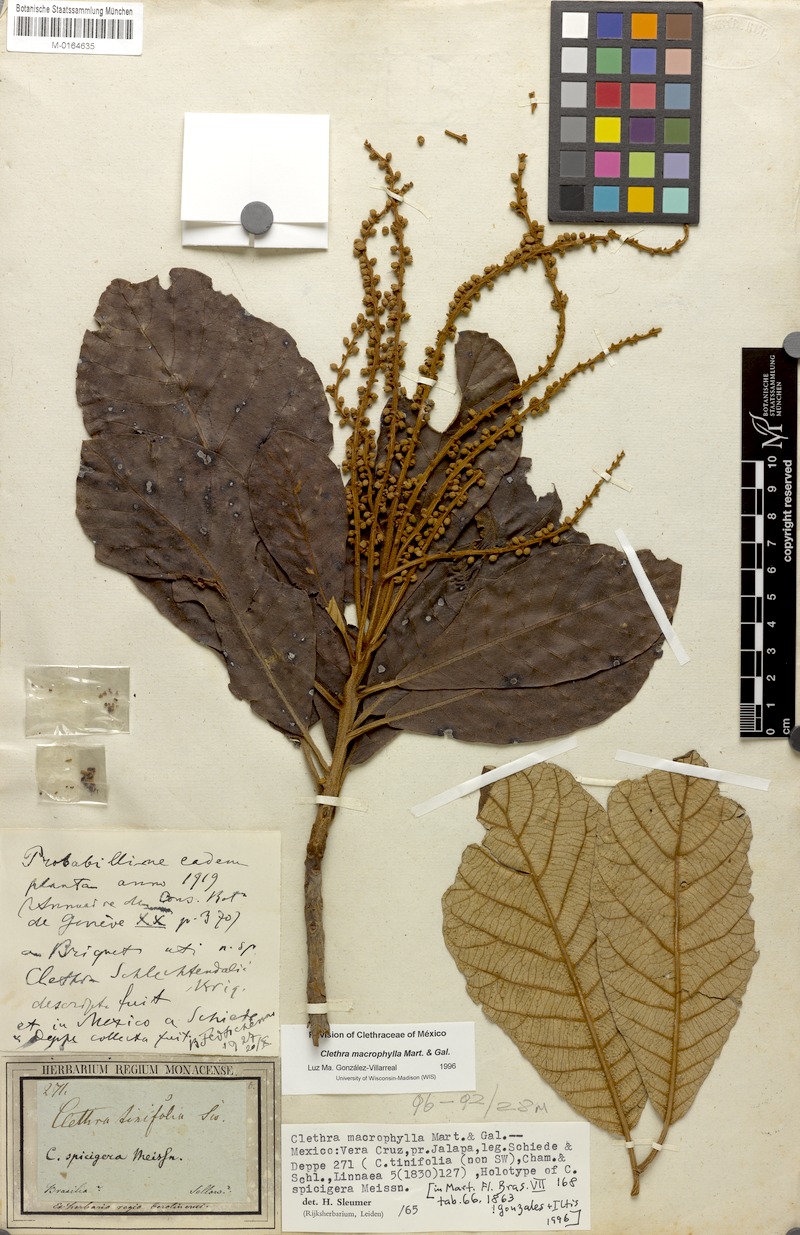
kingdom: Plantae
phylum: Tracheophyta
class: Magnoliopsida
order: Ericales
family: Clethraceae
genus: Clethra
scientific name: Clethra macrophylla
